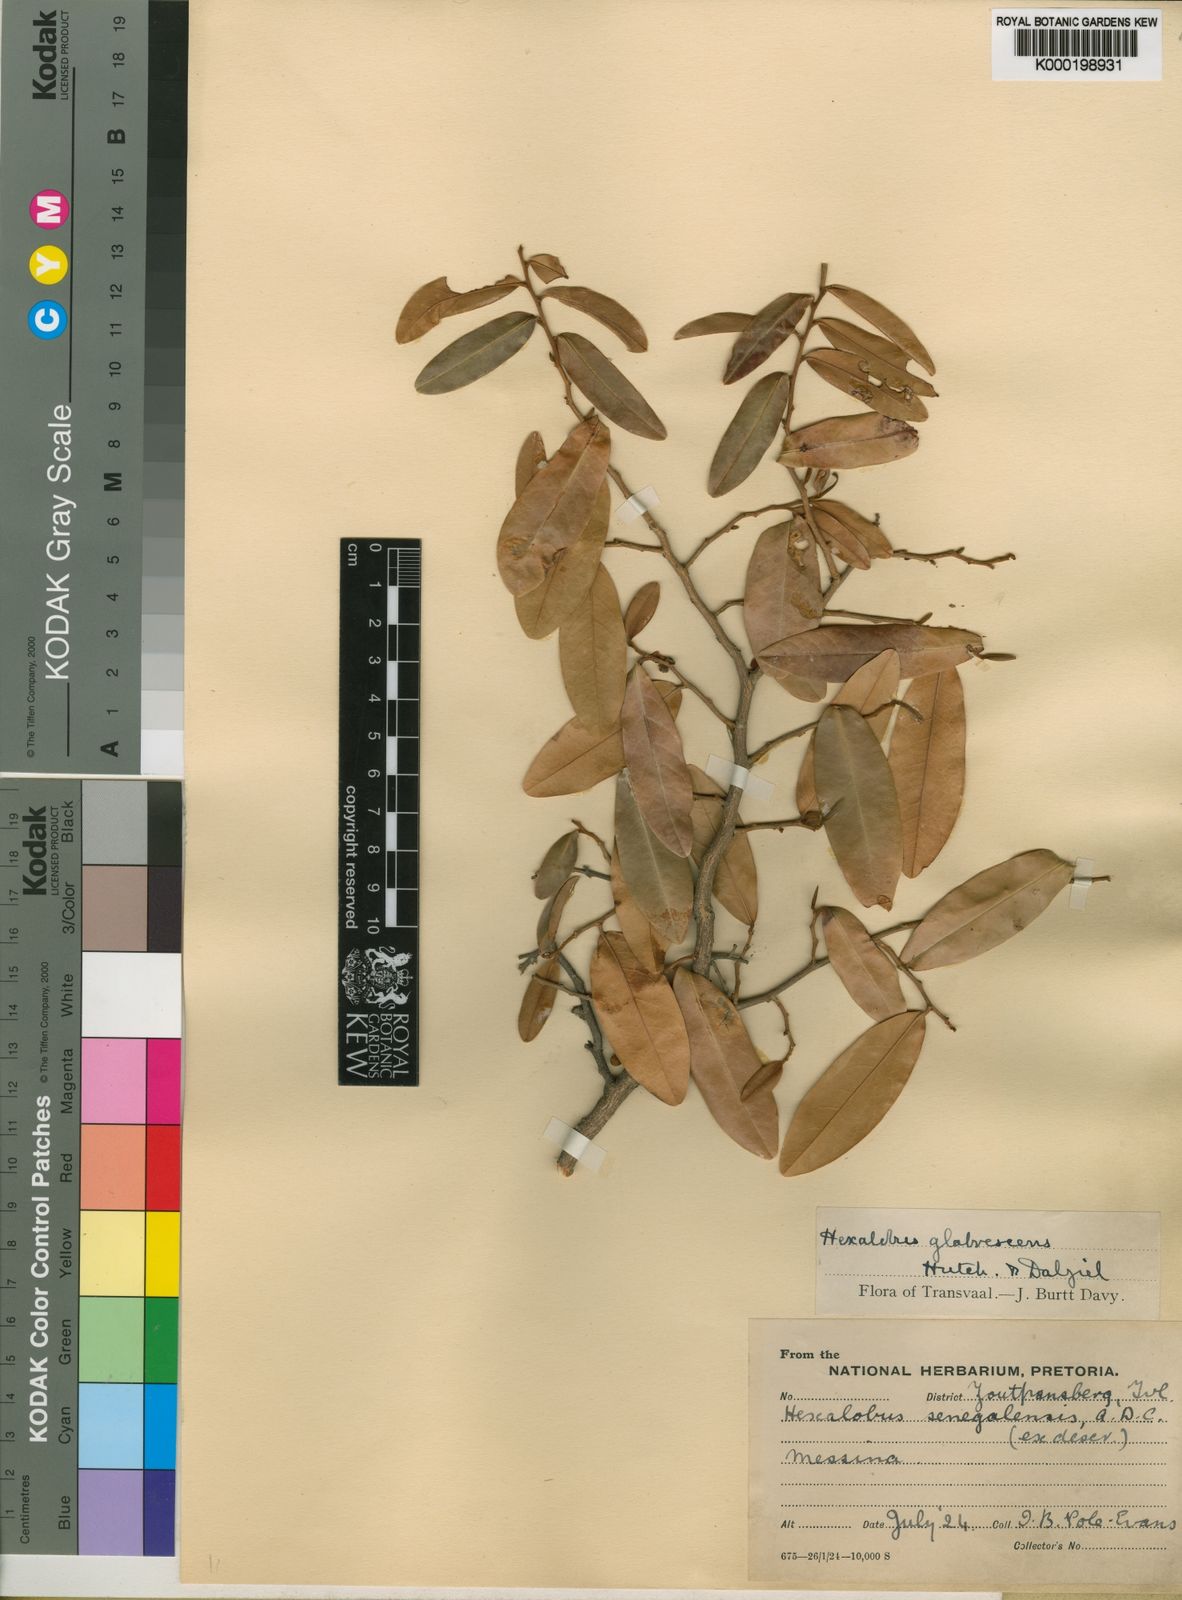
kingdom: Plantae
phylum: Tracheophyta
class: Magnoliopsida
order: Magnoliales
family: Annonaceae
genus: Hexalobus
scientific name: Hexalobus
